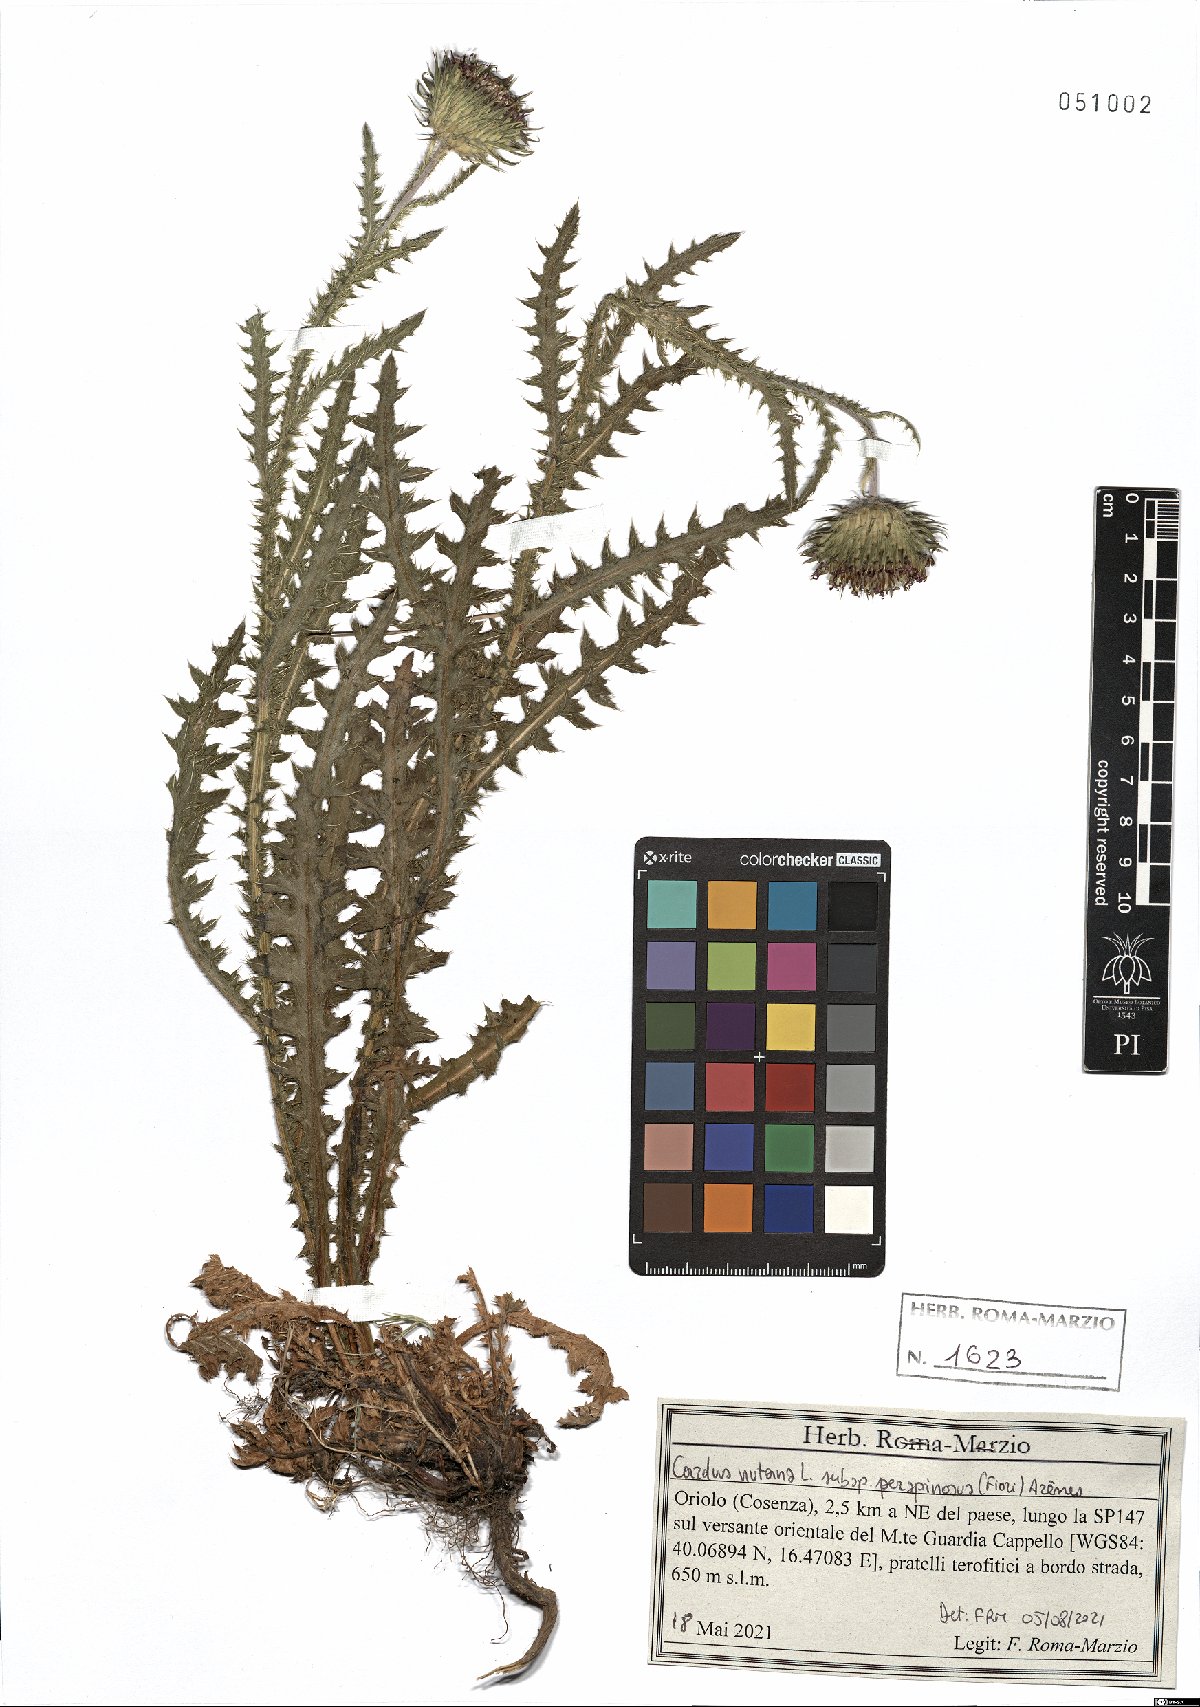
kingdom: Plantae
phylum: Tracheophyta
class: Magnoliopsida
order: Asterales
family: Asteraceae
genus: Carduus
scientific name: Carduus nutans
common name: Musk thistle
